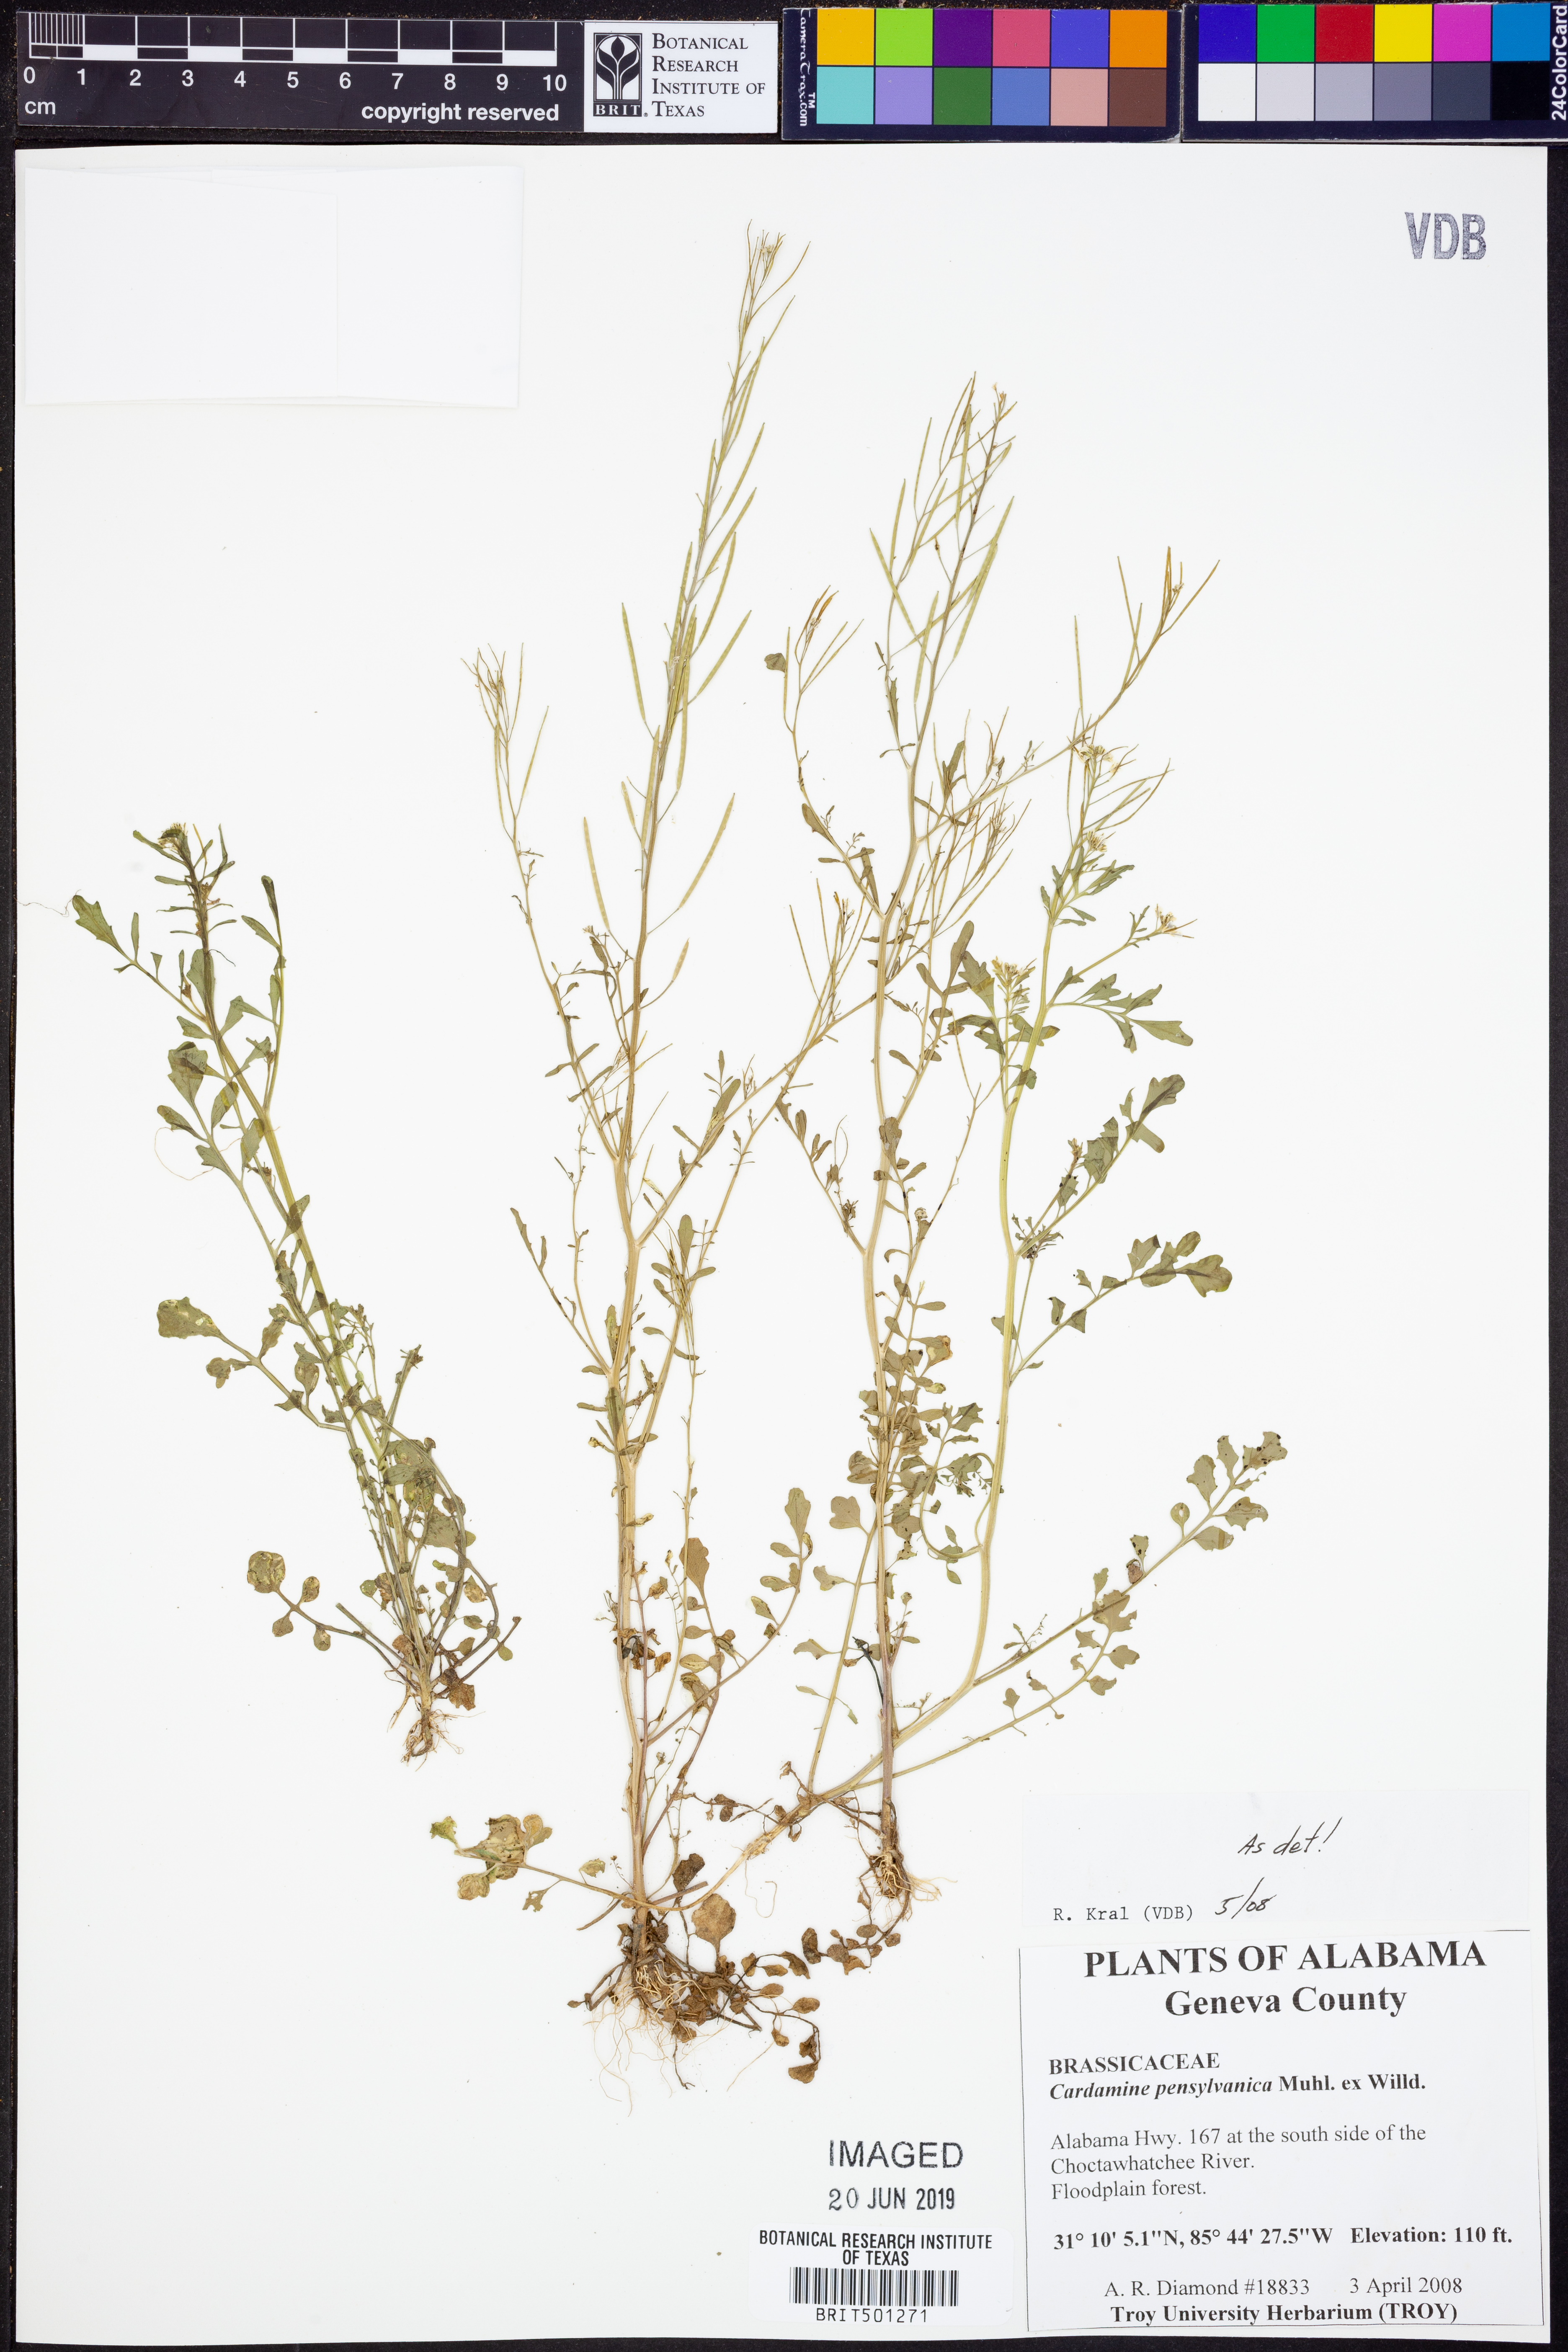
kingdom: Plantae
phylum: Tracheophyta
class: Magnoliopsida
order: Brassicales
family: Brassicaceae
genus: Cardamine
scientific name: Cardamine pensylvanica
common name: Pennsylvania bittercress
